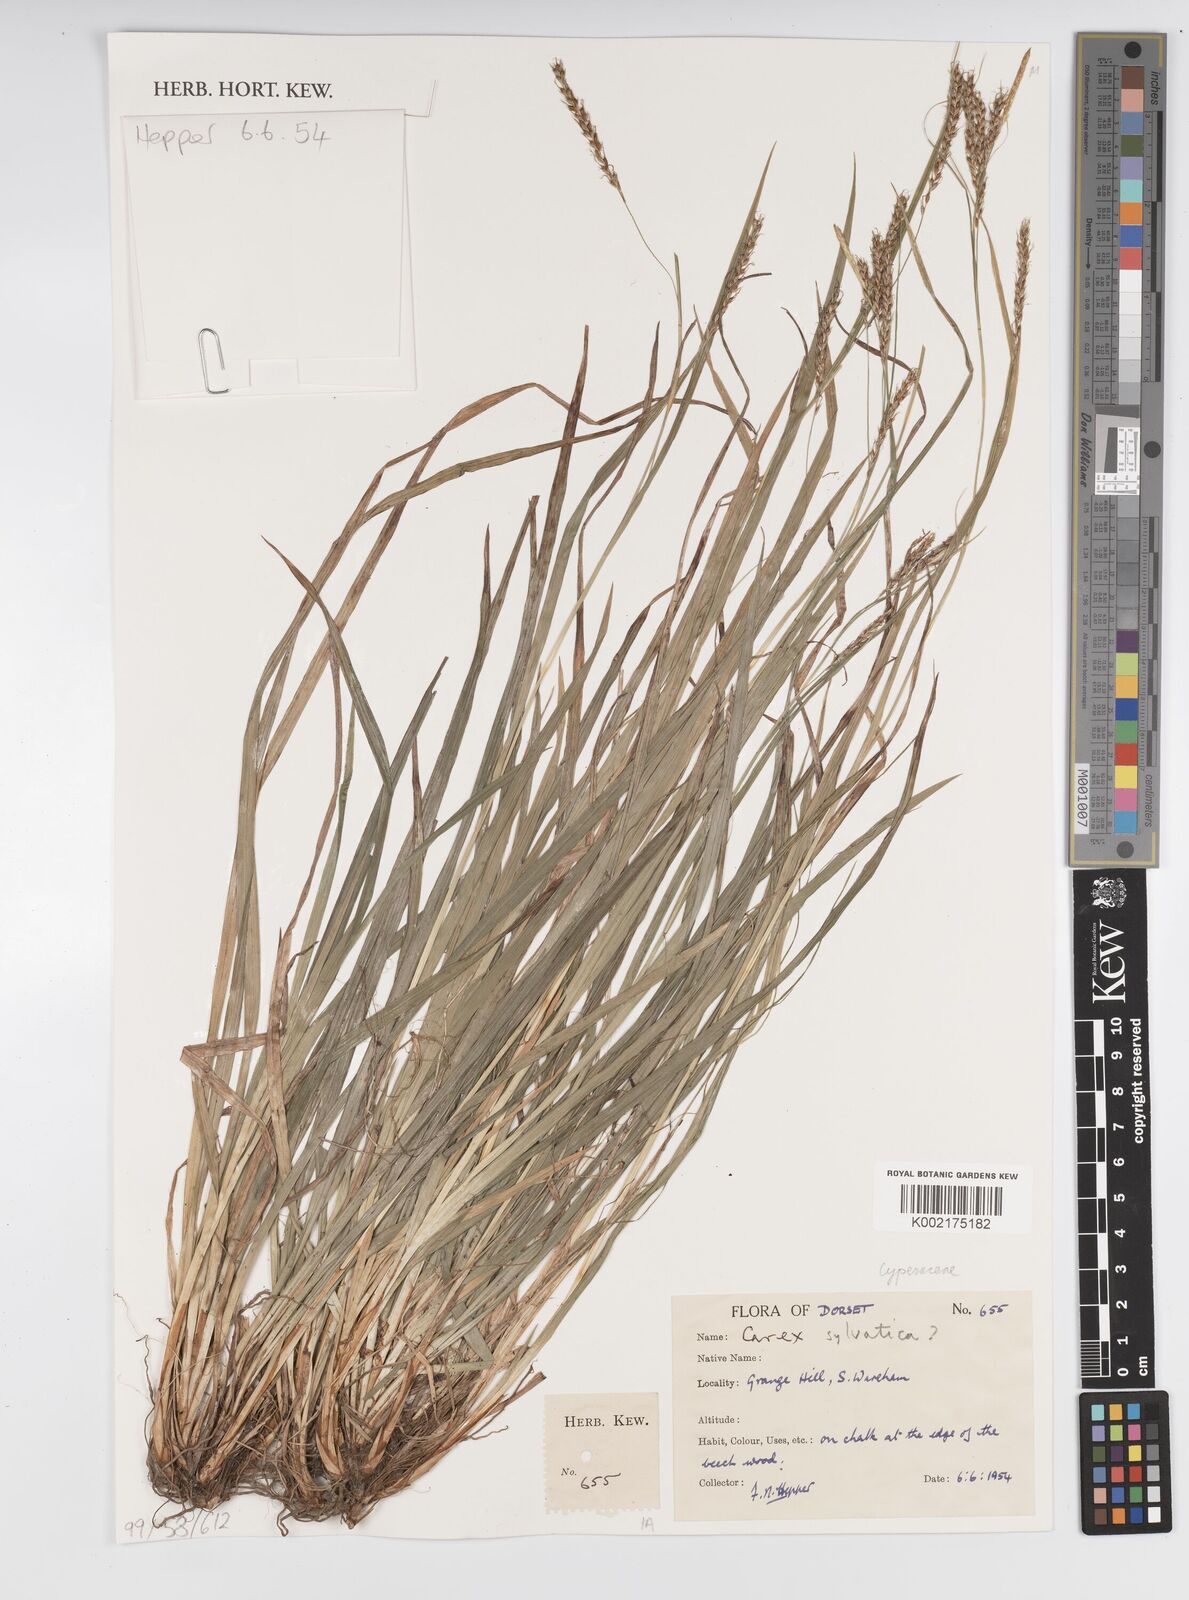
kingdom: Plantae
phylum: Tracheophyta
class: Liliopsida
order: Poales
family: Cyperaceae
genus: Carex
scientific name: Carex sylvatica
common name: Wood-sedge
